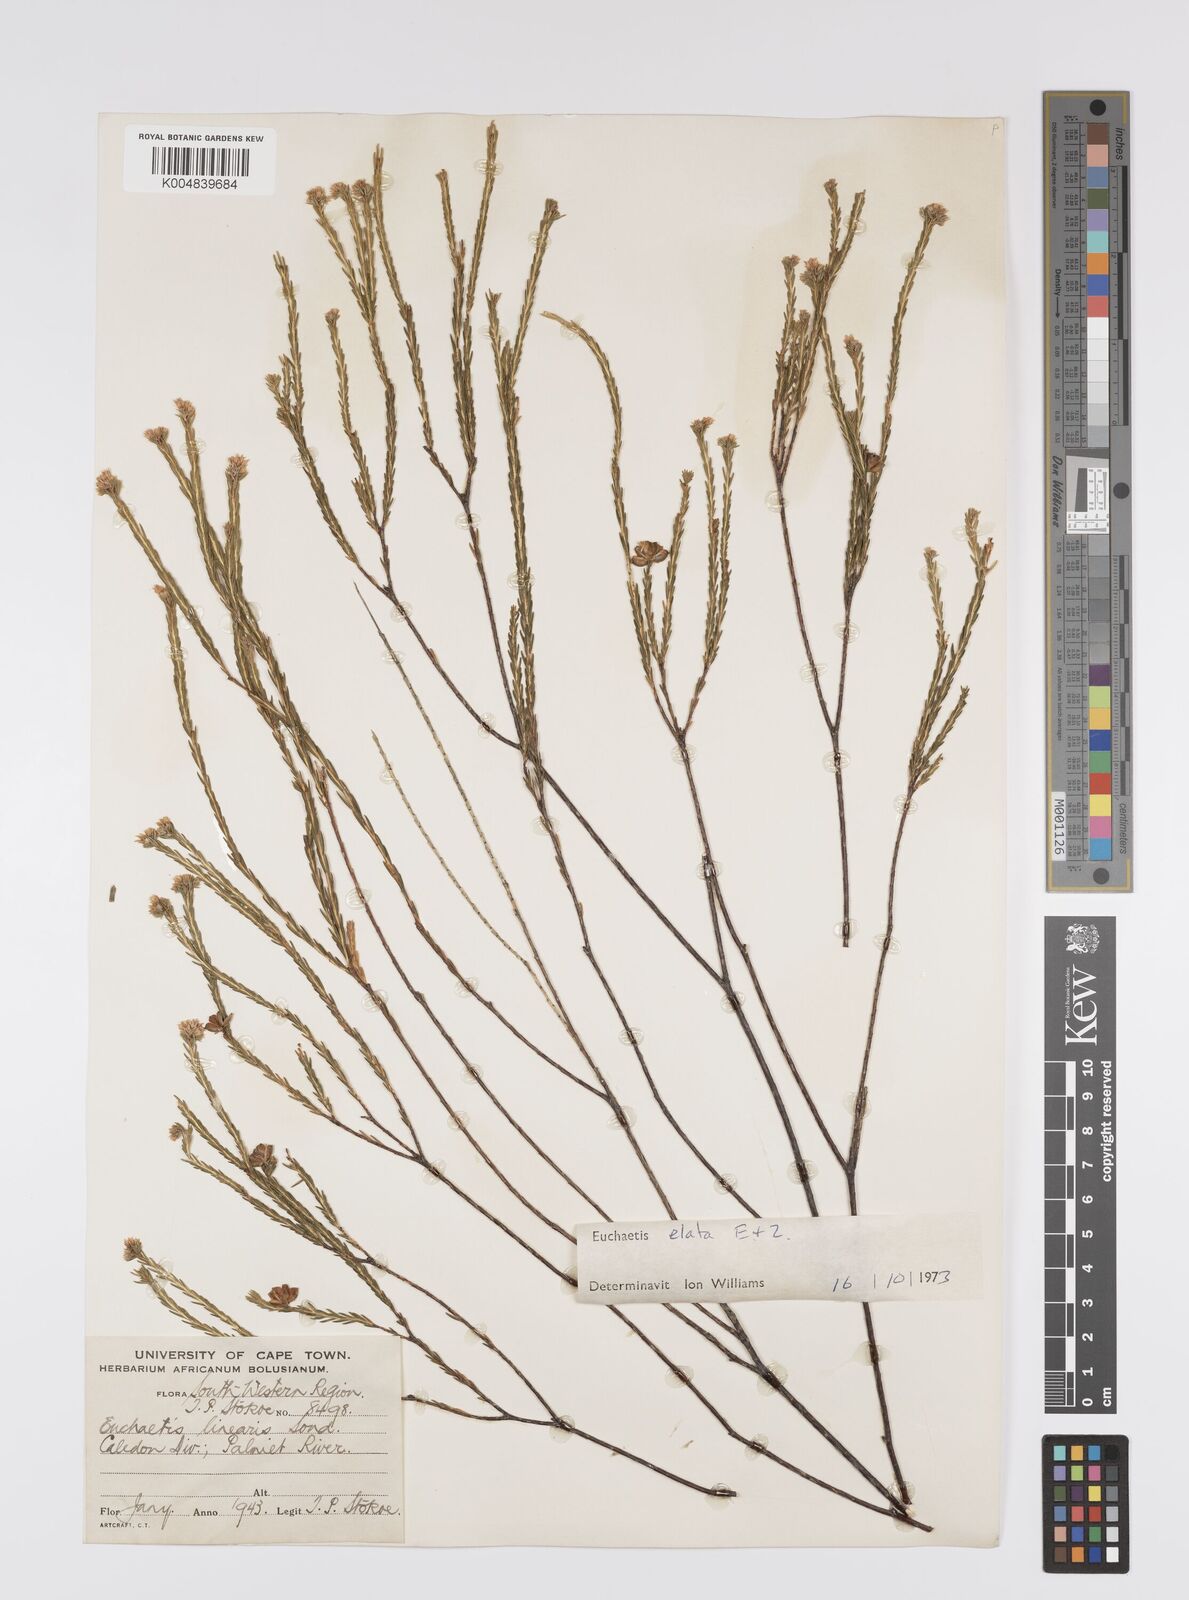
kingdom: Plantae
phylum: Tracheophyta
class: Magnoliopsida
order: Sapindales
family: Rutaceae
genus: Euchaetis
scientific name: Euchaetis elata
